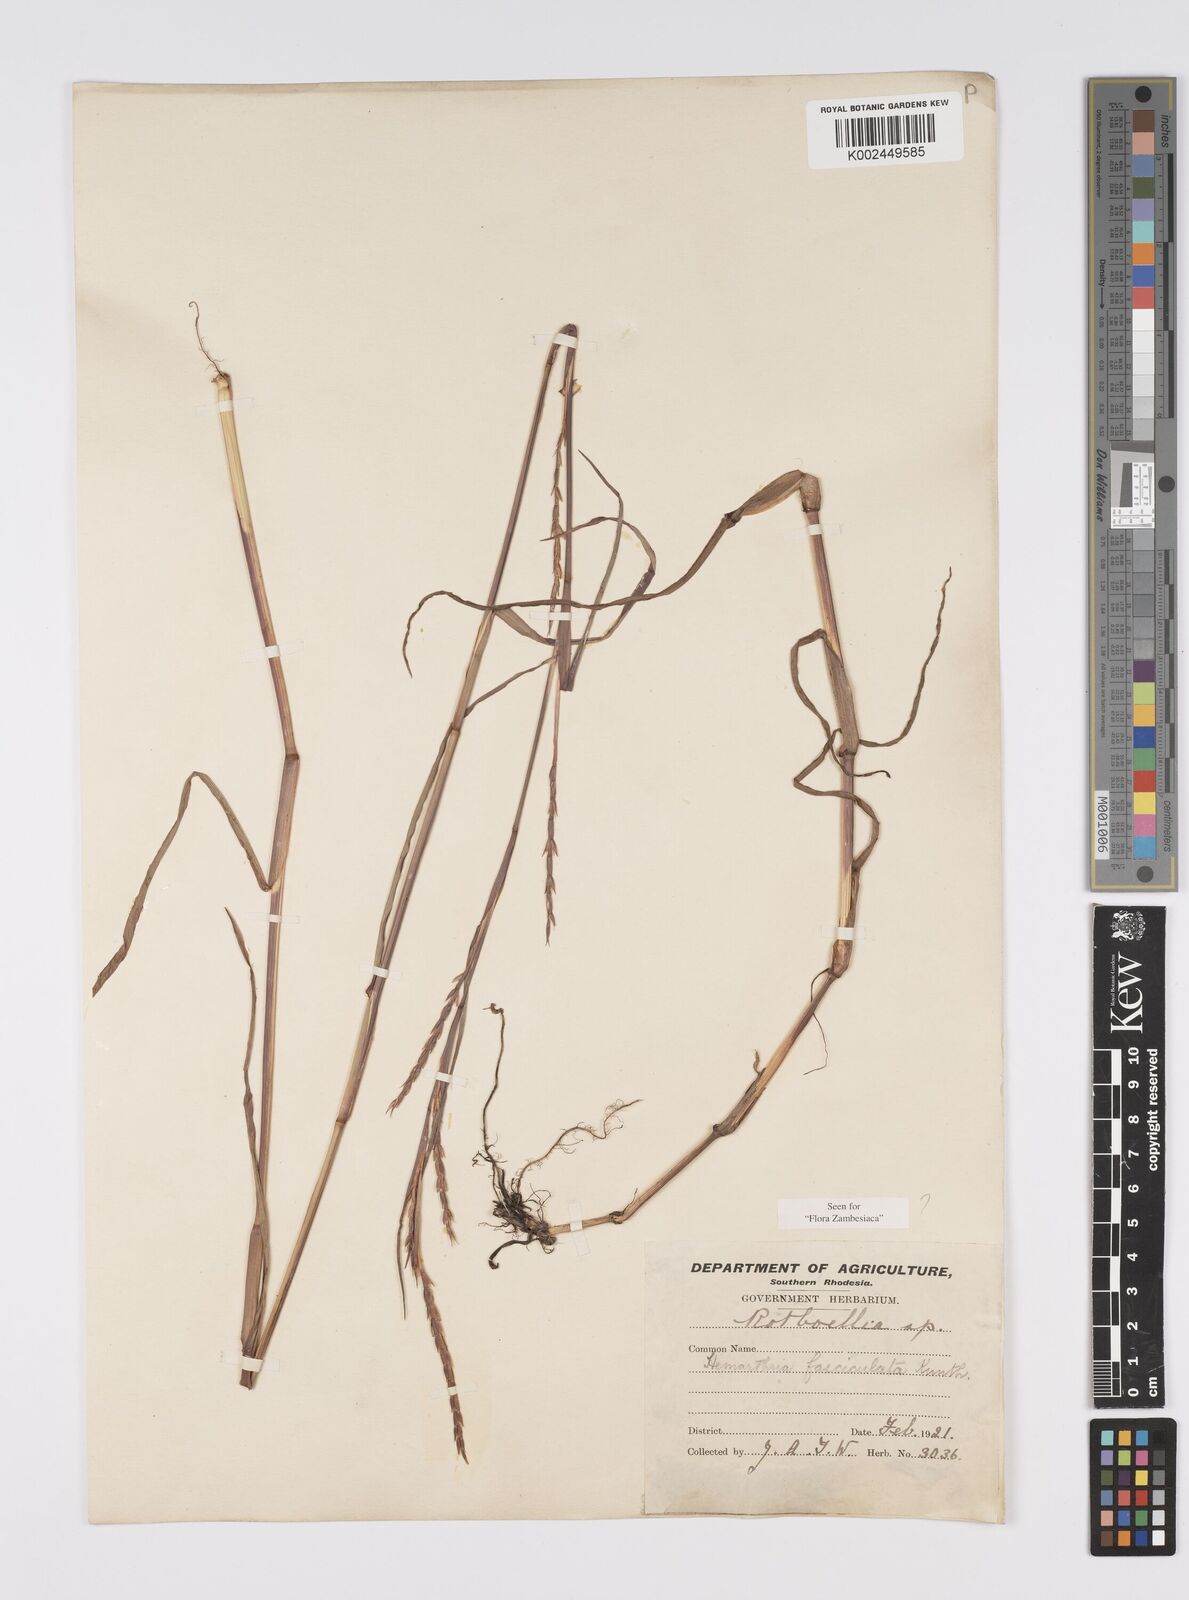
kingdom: Plantae
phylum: Tracheophyta
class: Liliopsida
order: Poales
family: Poaceae
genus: Hemarthria
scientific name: Hemarthria altissima
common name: African jointgrass
